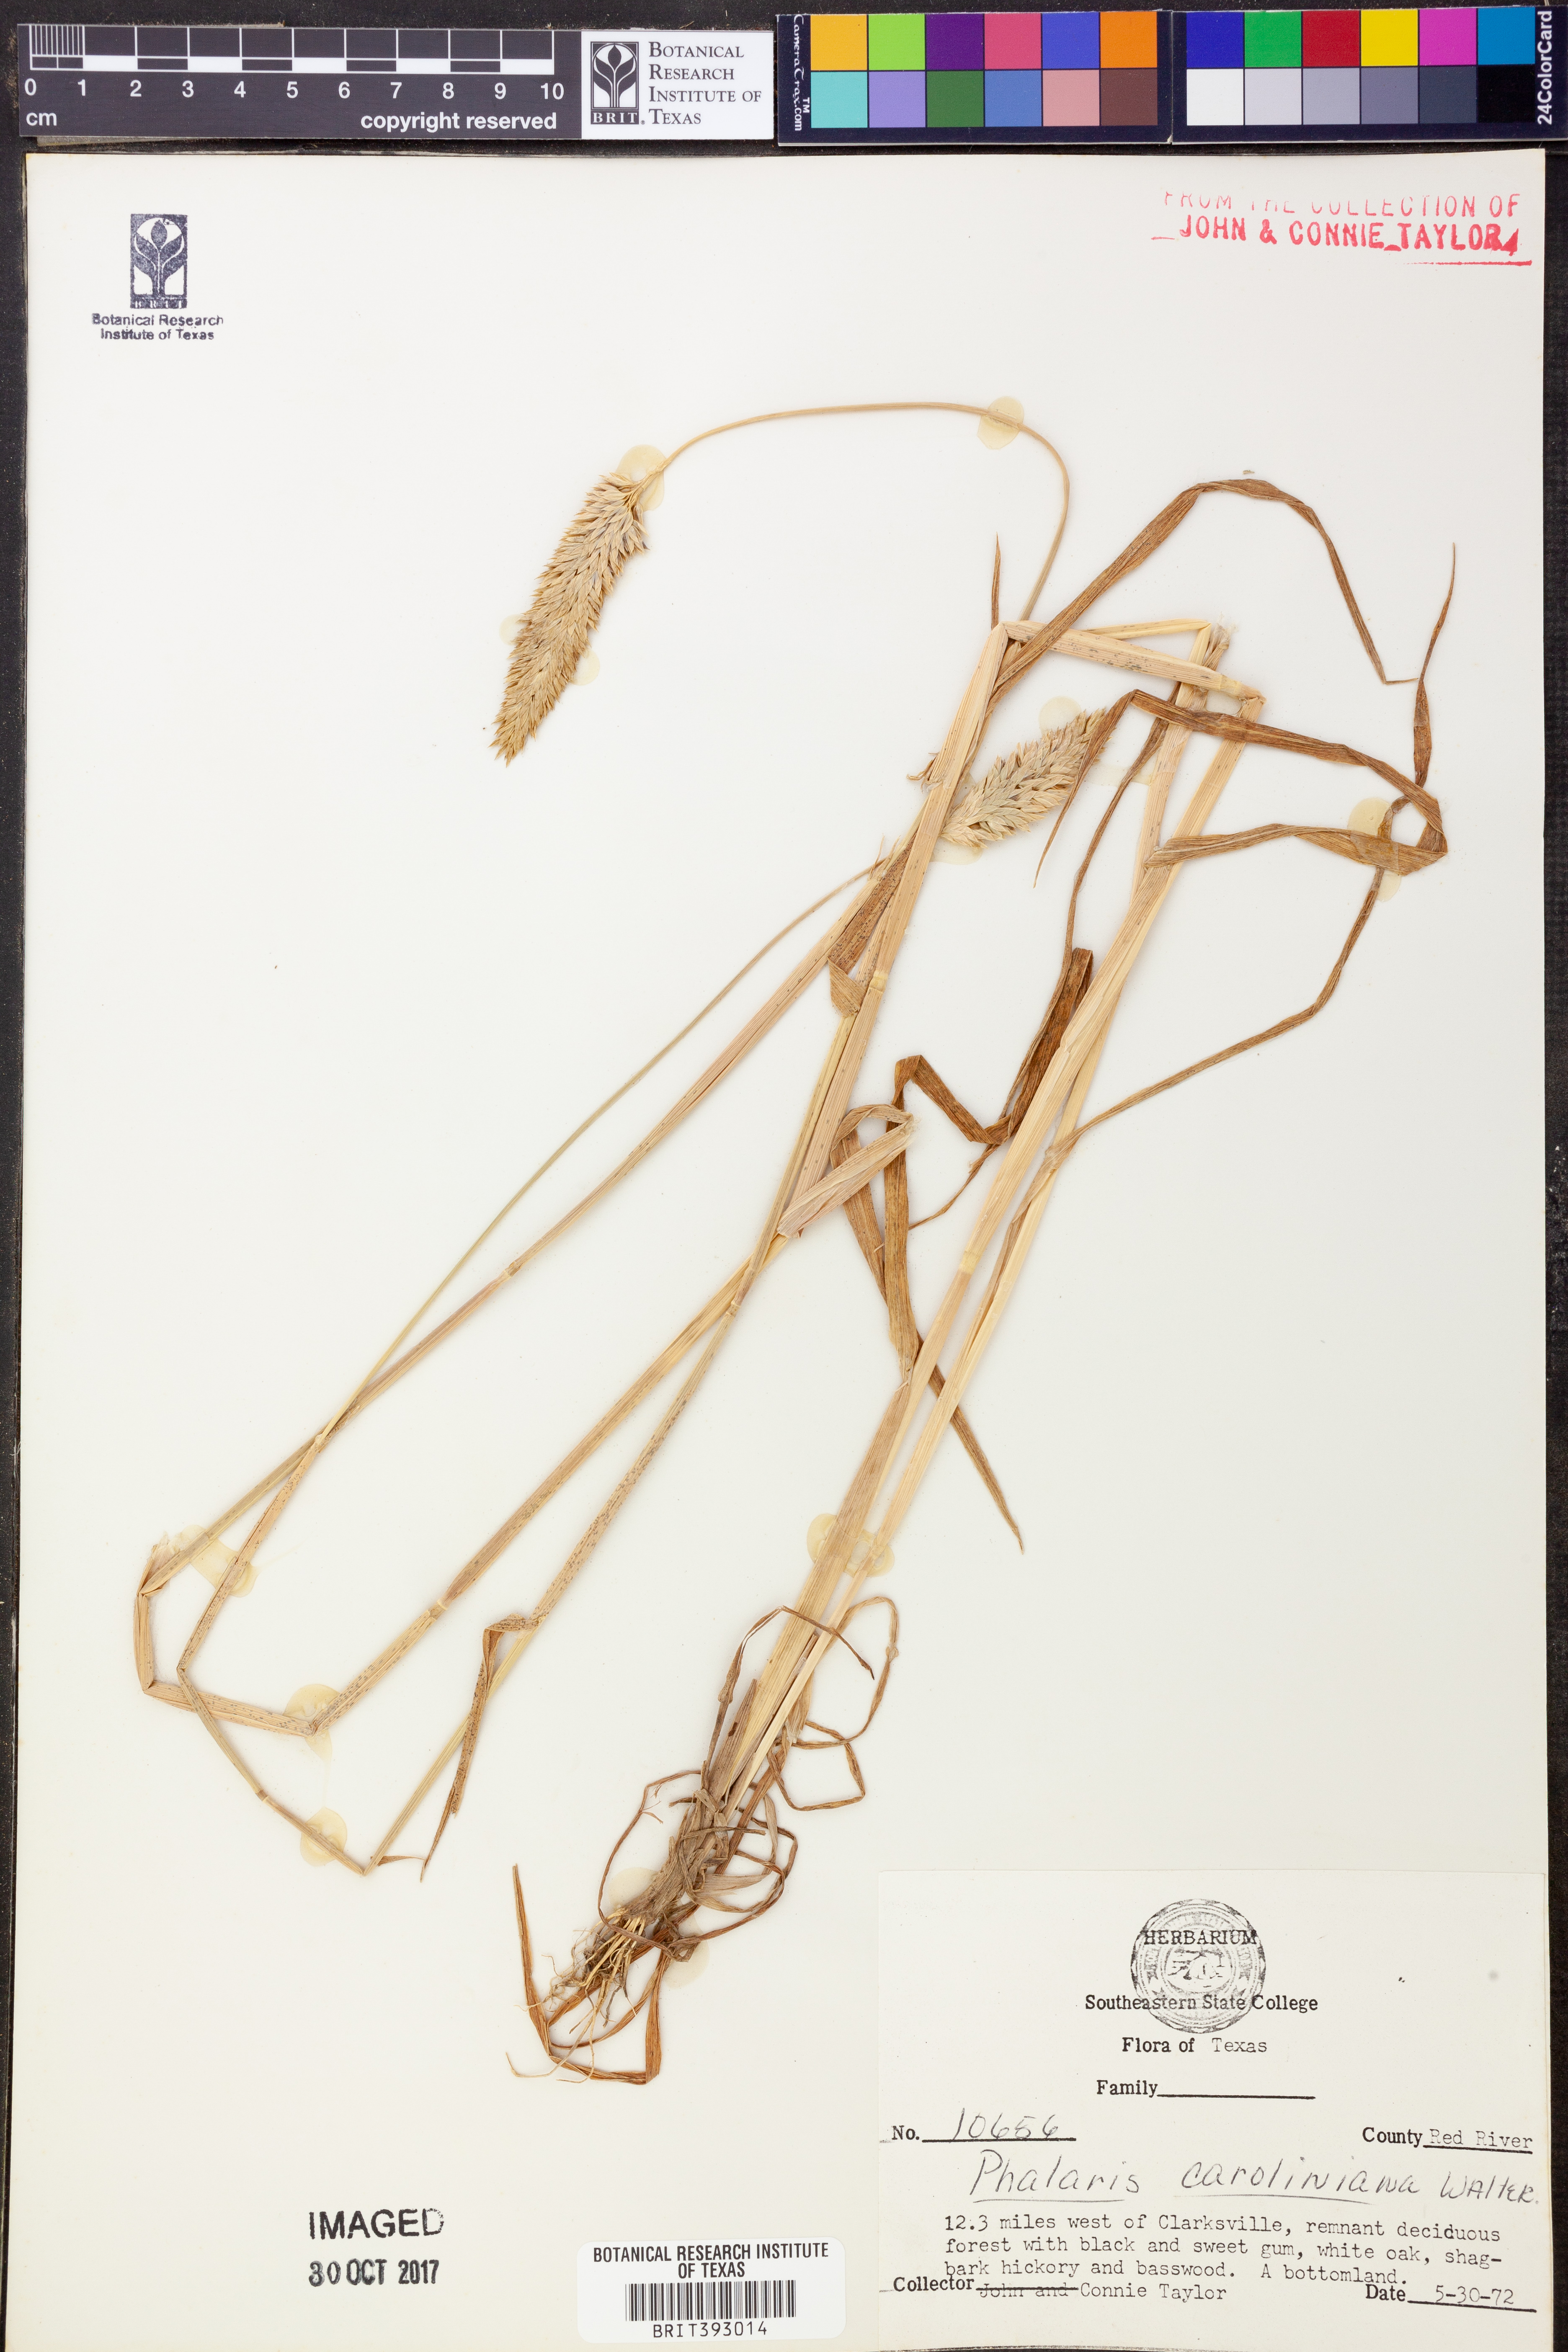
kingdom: Plantae
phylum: Tracheophyta
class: Liliopsida
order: Poales
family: Poaceae
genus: Phalaris
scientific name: Phalaris caroliniana
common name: May grass
